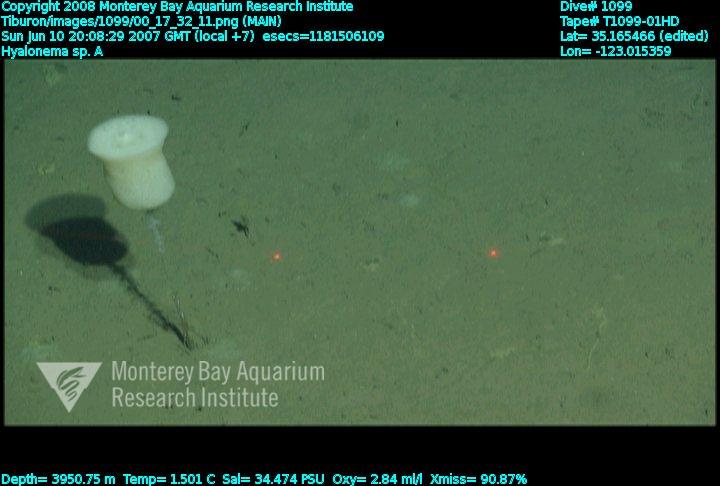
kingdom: Animalia
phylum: Porifera
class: Hexactinellida
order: Amphidiscosida
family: Hyalonematidae
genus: Hyalonema
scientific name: Hyalonema
